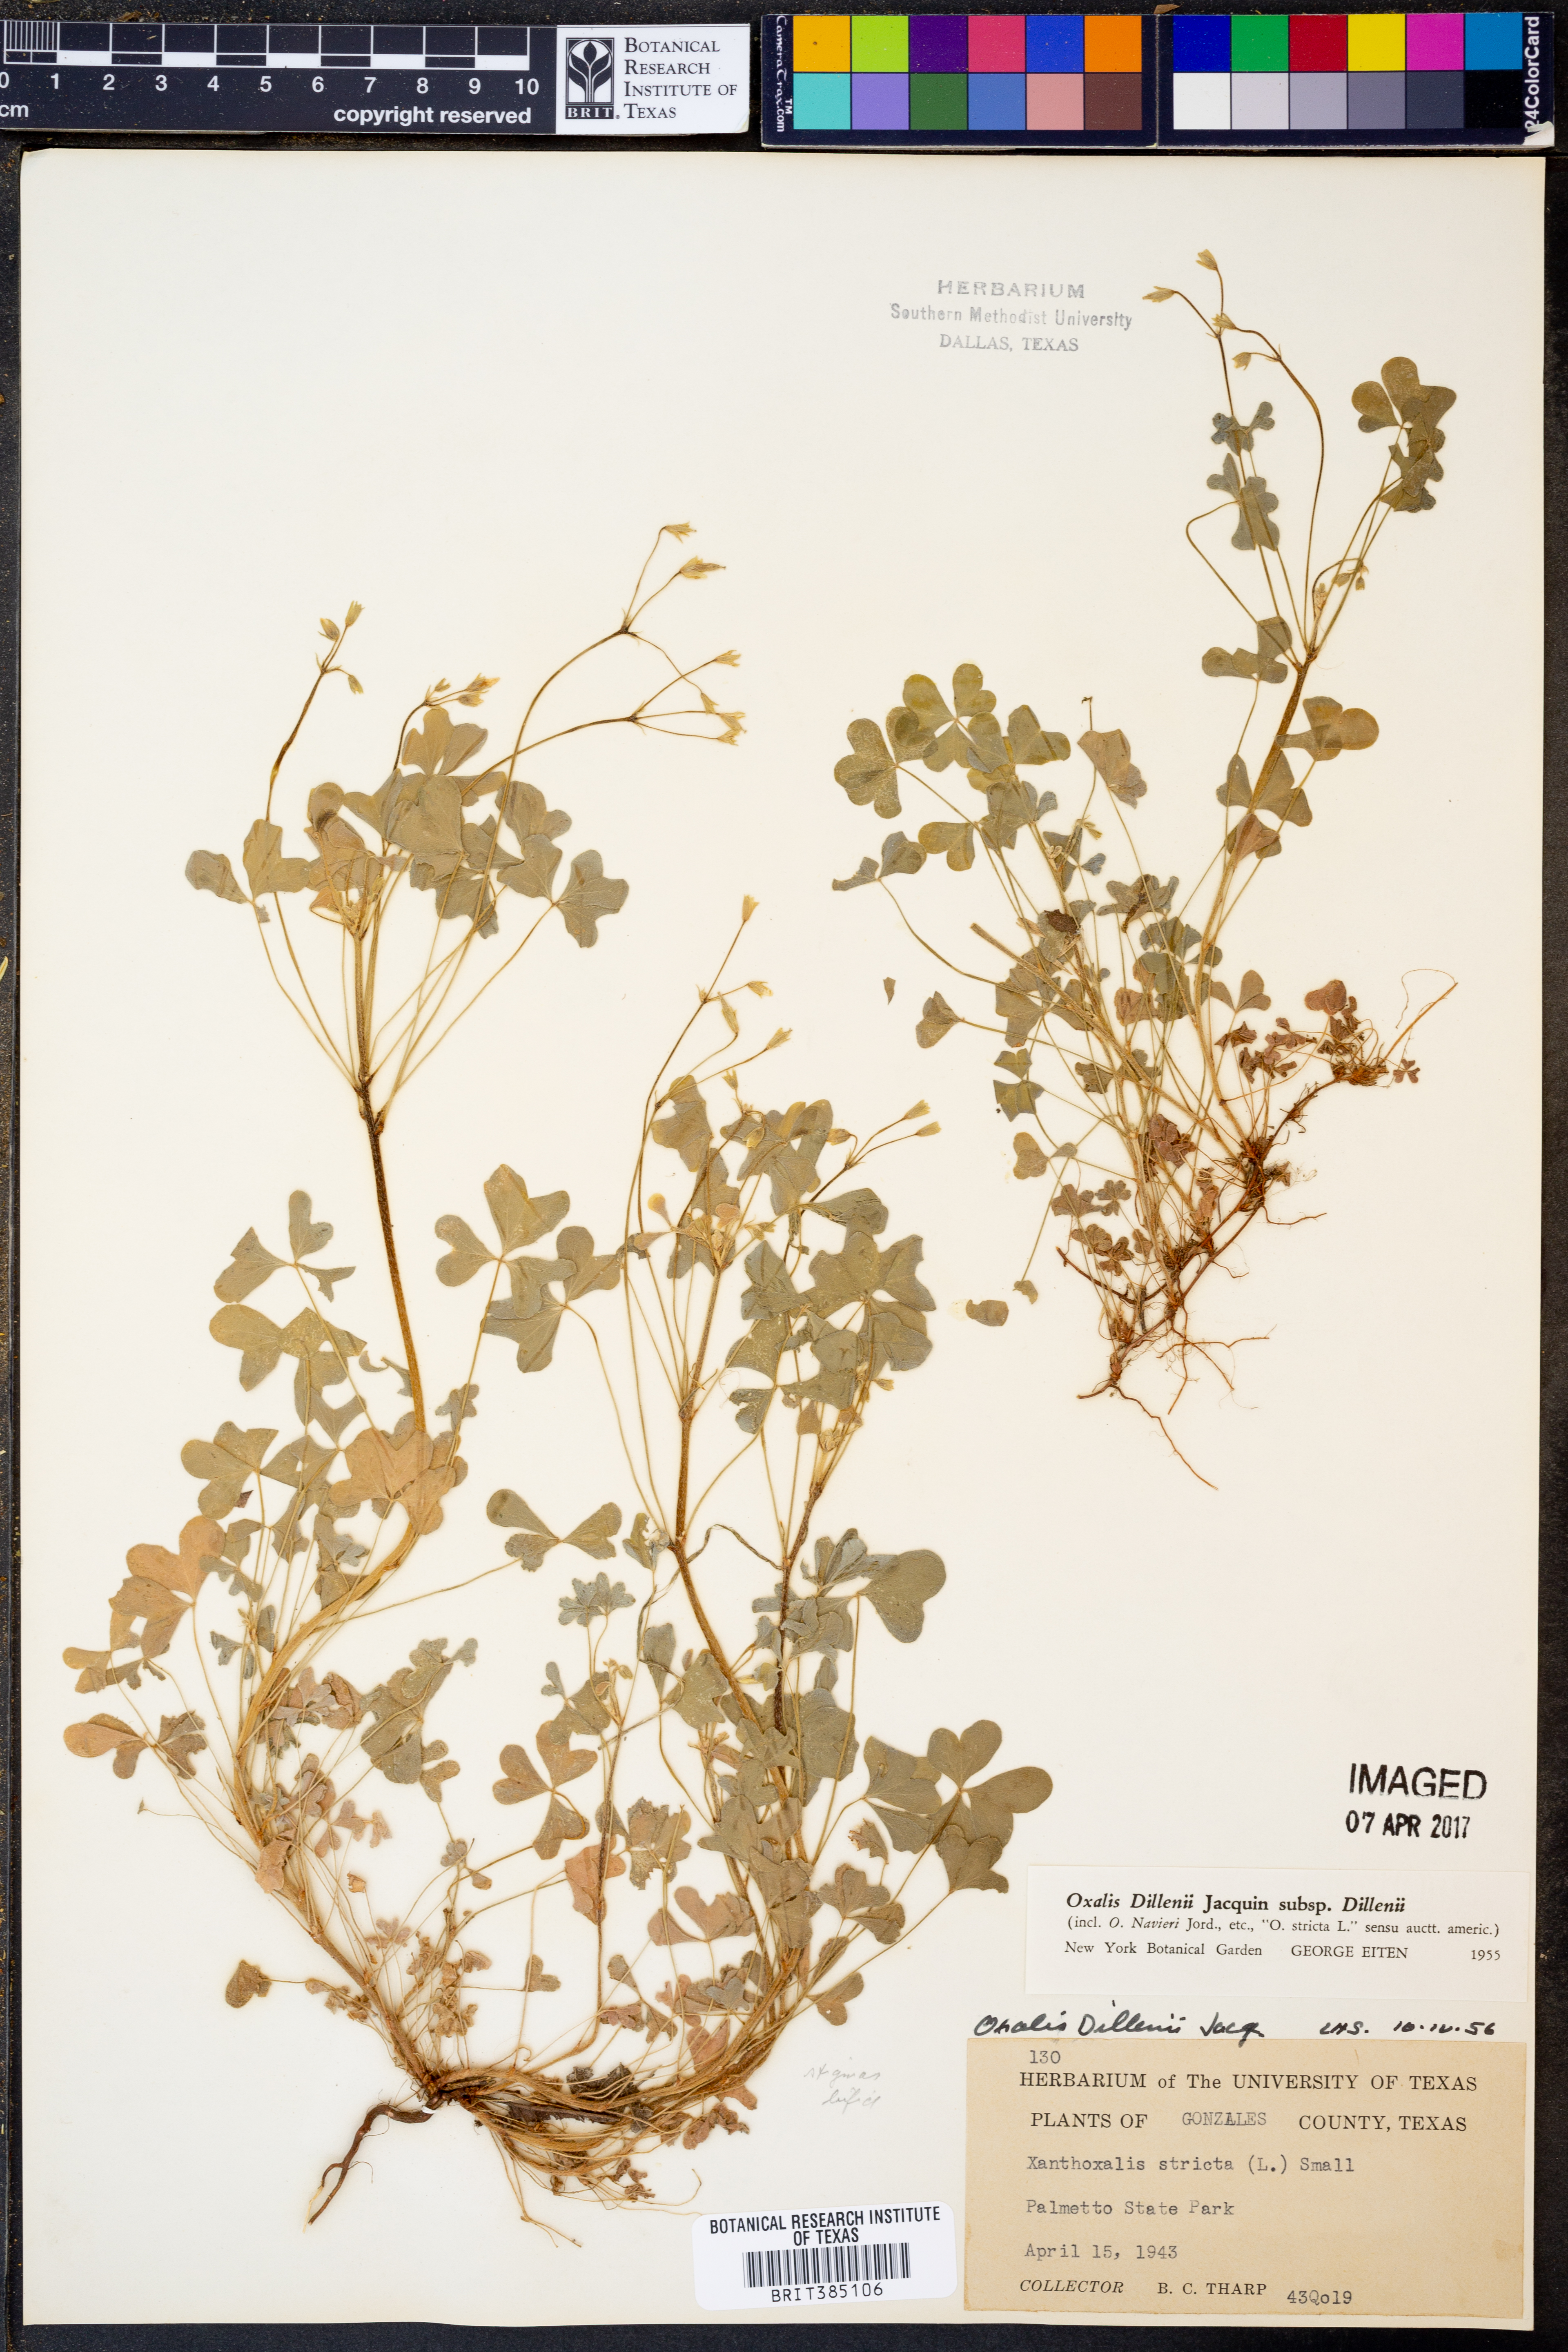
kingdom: Plantae
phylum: Tracheophyta
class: Magnoliopsida
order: Oxalidales
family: Oxalidaceae
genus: Oxalis
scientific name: Oxalis dillenii
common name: Sussex yellow-sorrel
